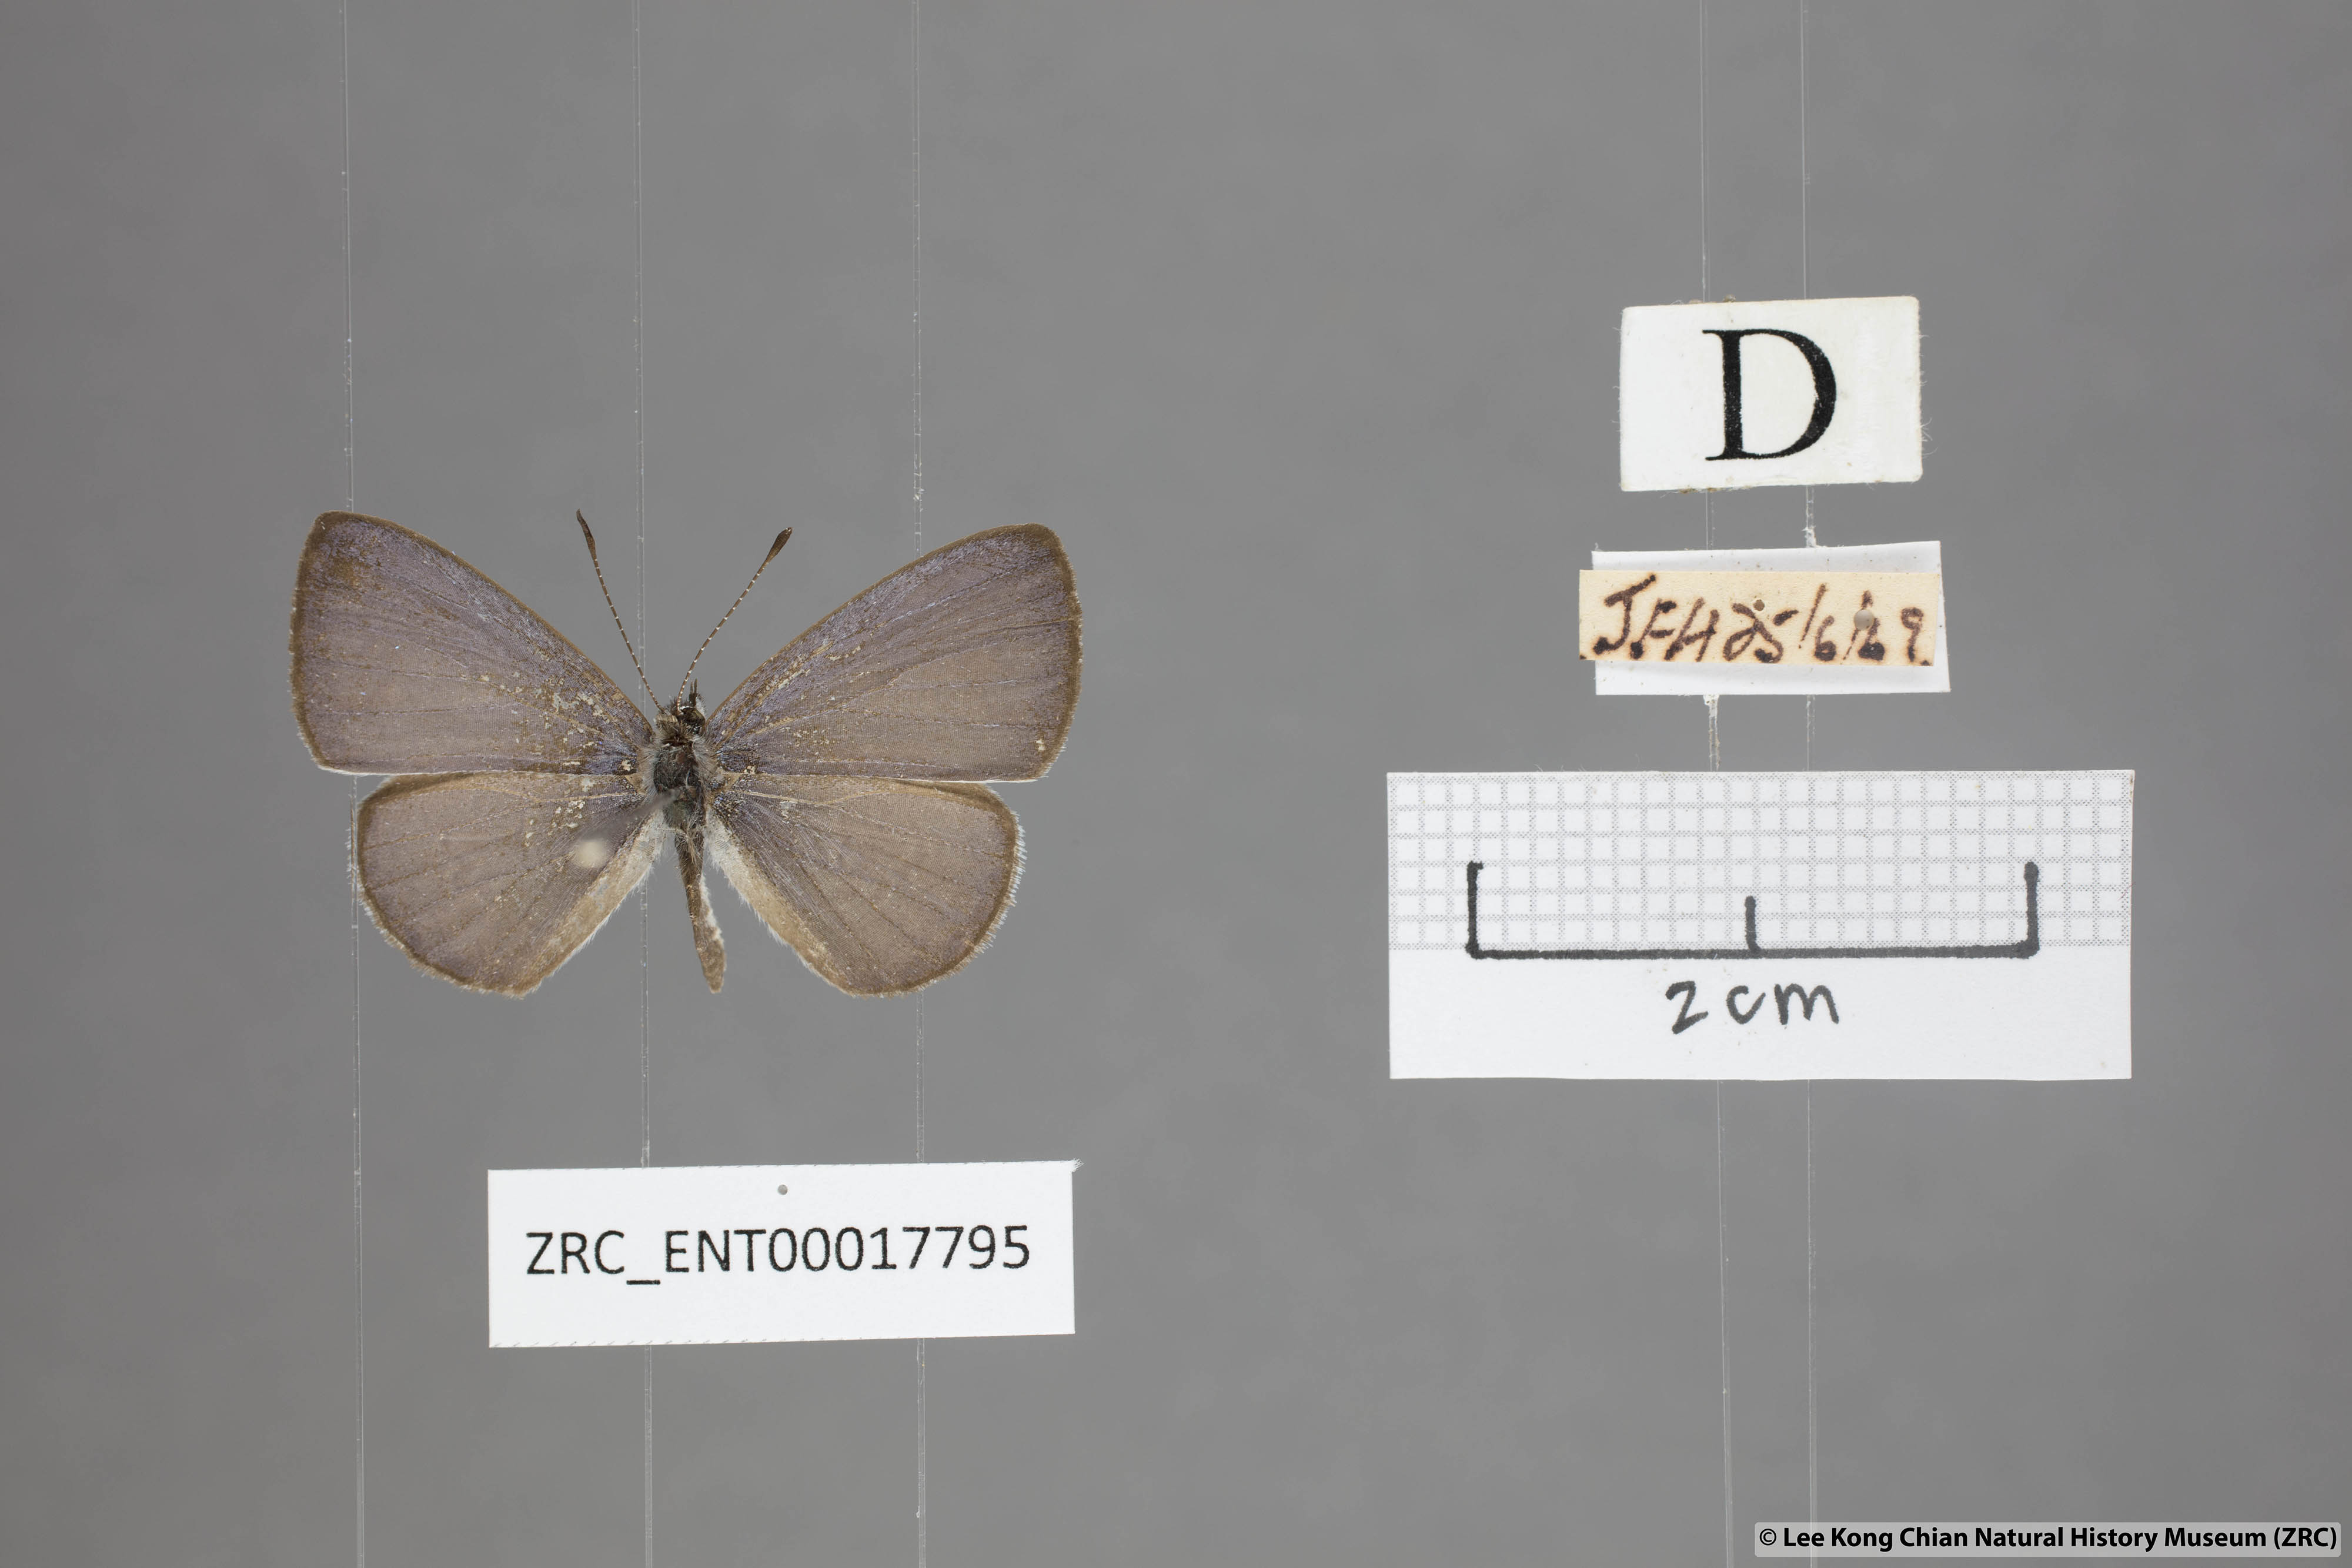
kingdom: Animalia
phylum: Arthropoda
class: Insecta
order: Lepidoptera
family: Lycaenidae
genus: Monodontides
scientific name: Monodontides
